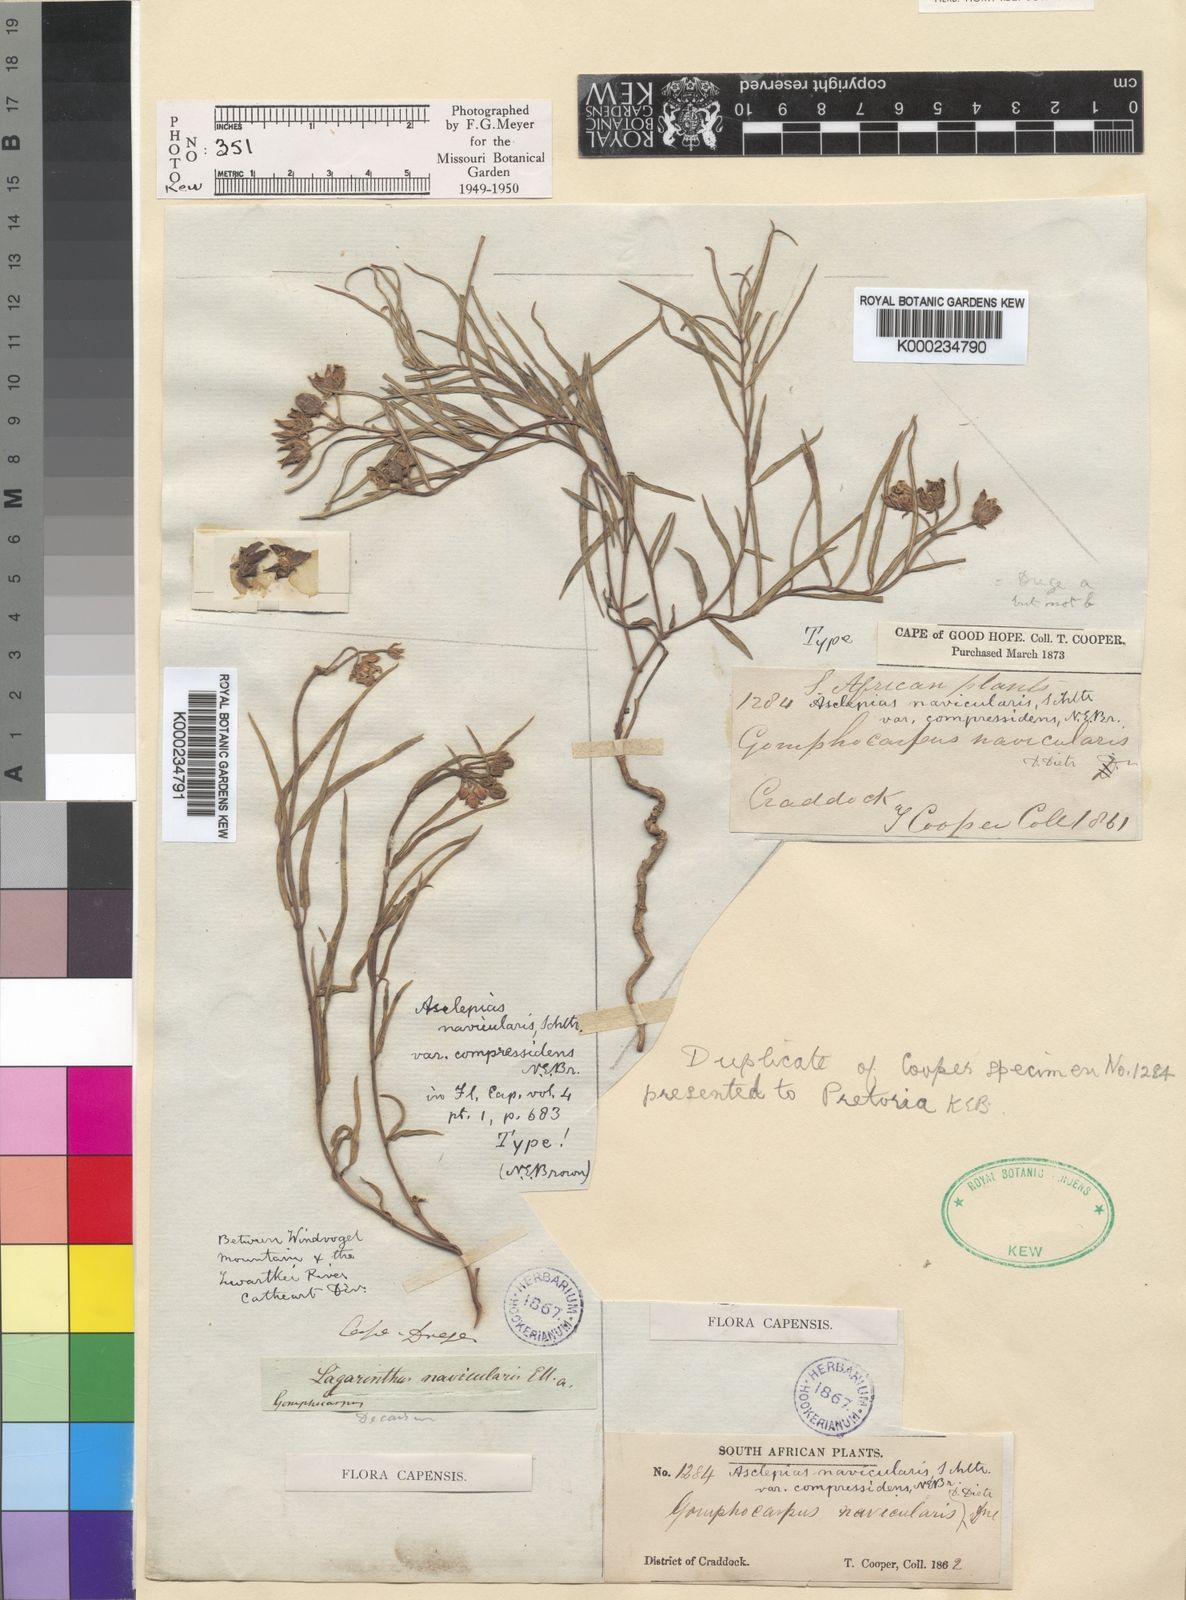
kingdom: Plantae
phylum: Tracheophyta
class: Magnoliopsida
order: Gentianales
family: Apocynaceae
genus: Asclepias
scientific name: Asclepias navicularis
